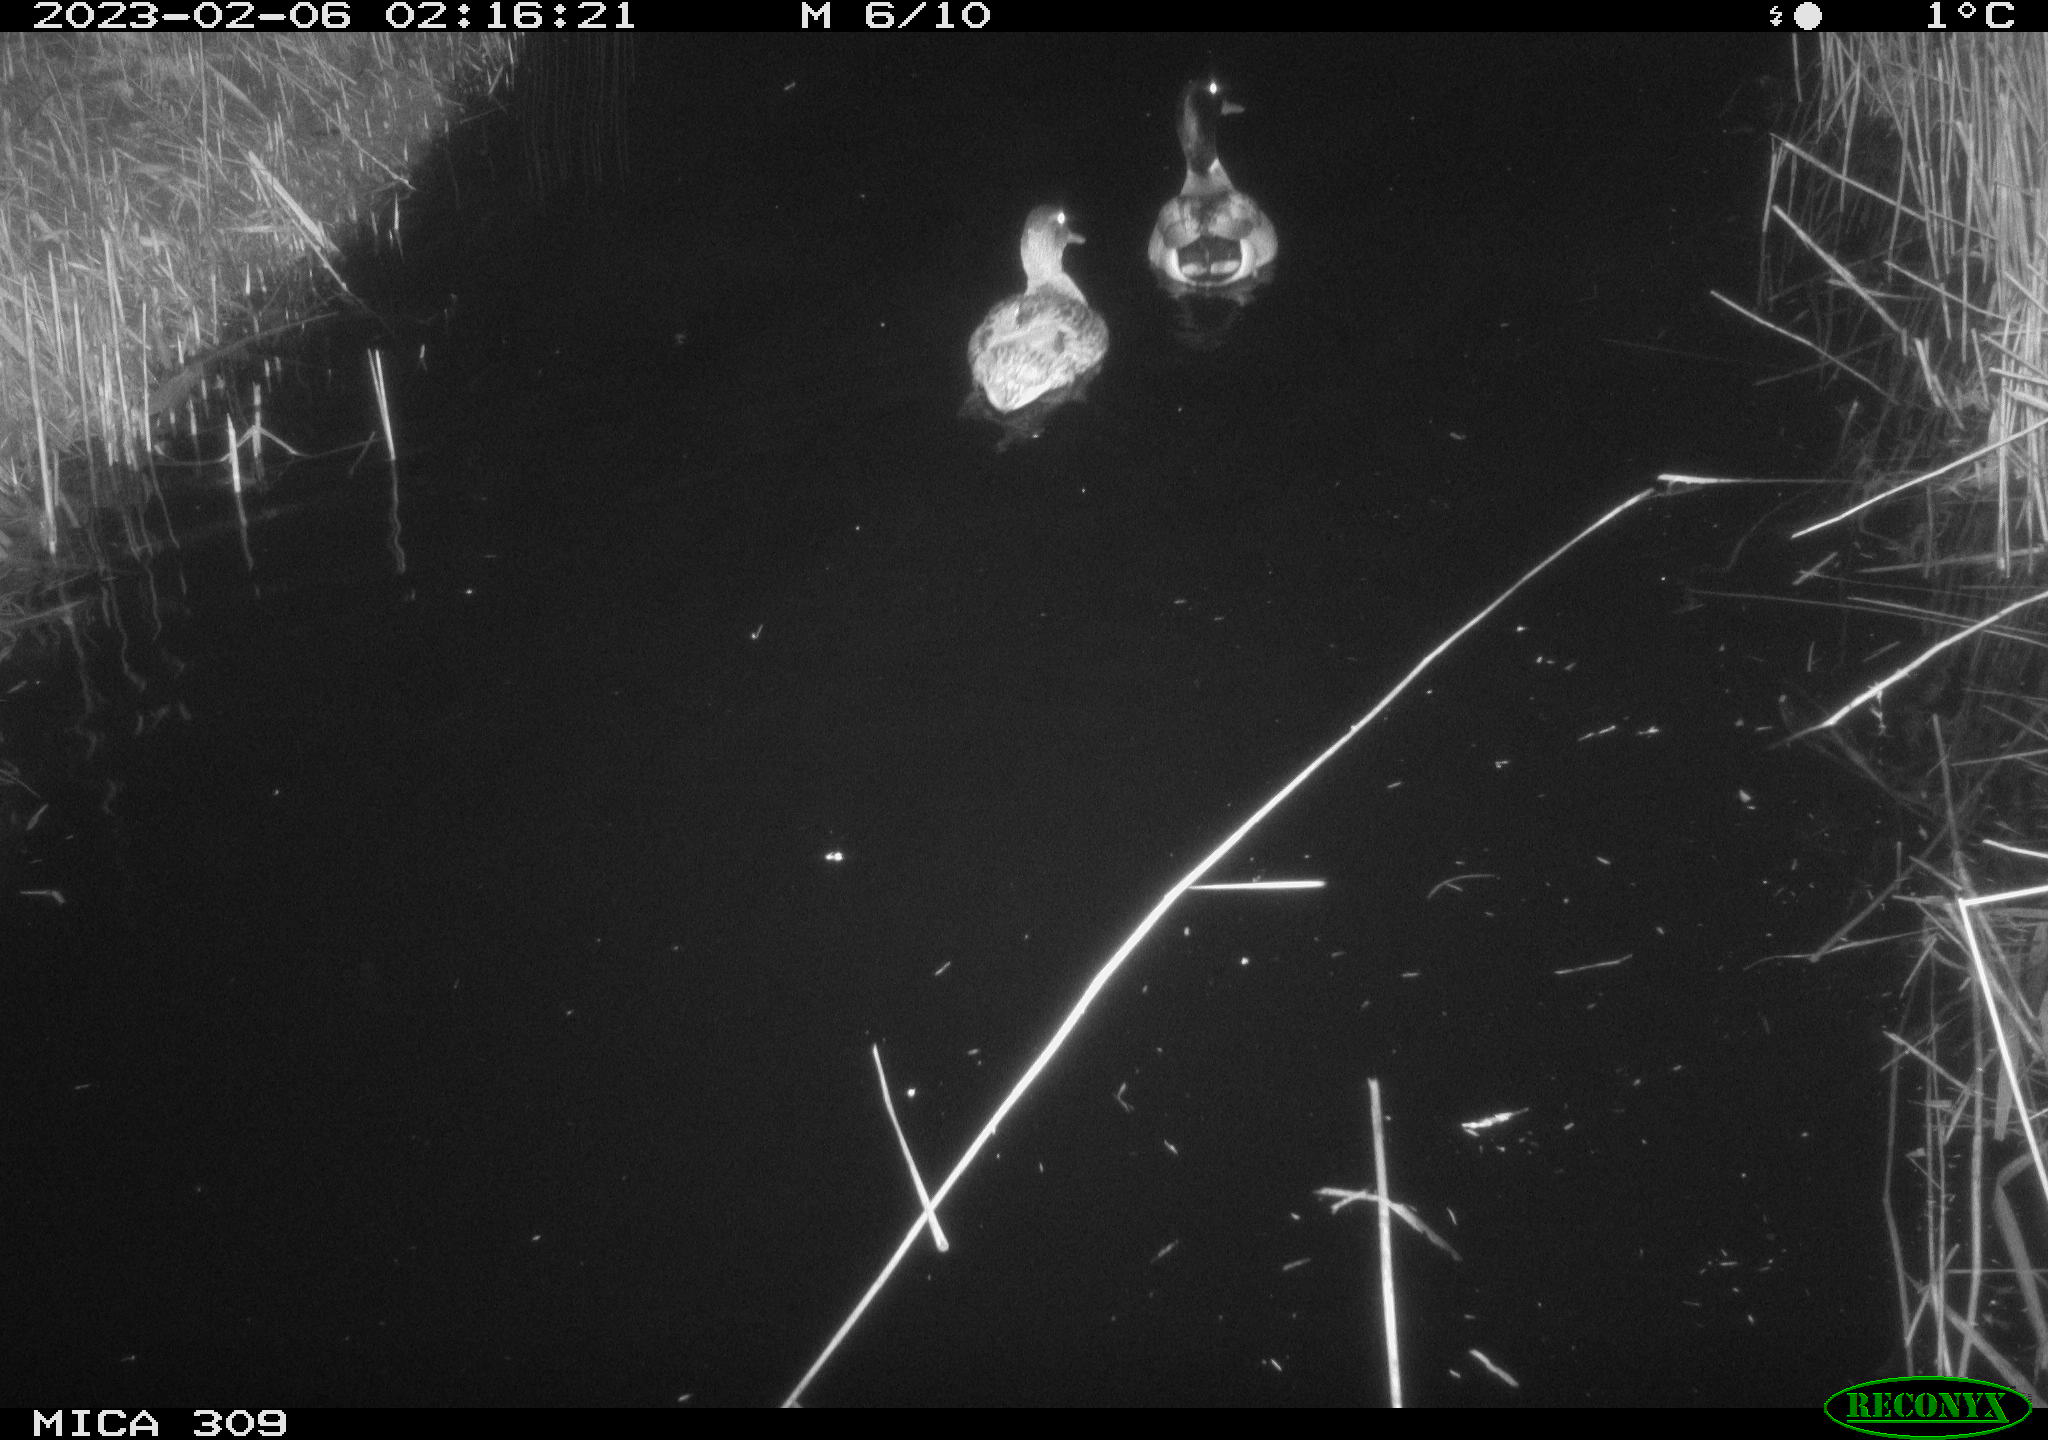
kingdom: Animalia
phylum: Chordata
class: Aves
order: Anseriformes
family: Anatidae
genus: Anas
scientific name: Anas
